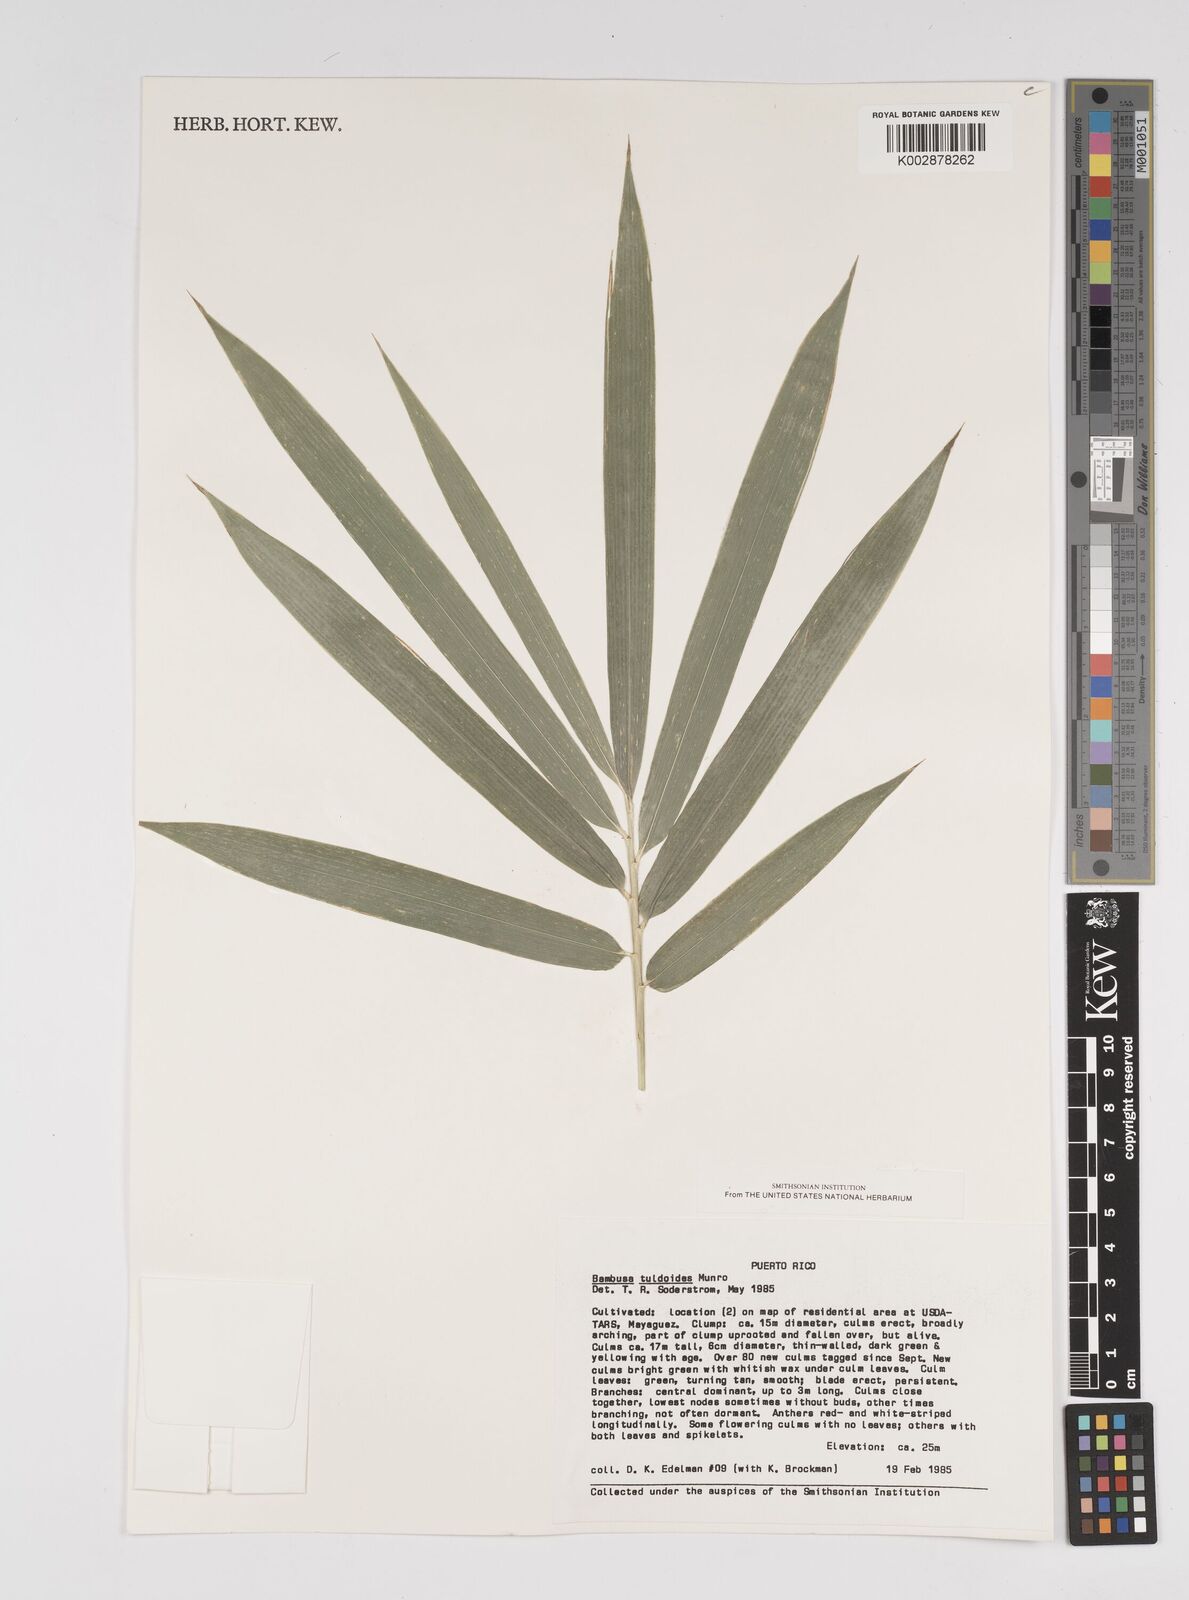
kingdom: Plantae
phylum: Tracheophyta
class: Liliopsida
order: Poales
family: Poaceae
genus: Bambusa
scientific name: Bambusa tuldoides
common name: Verdant bamboo
